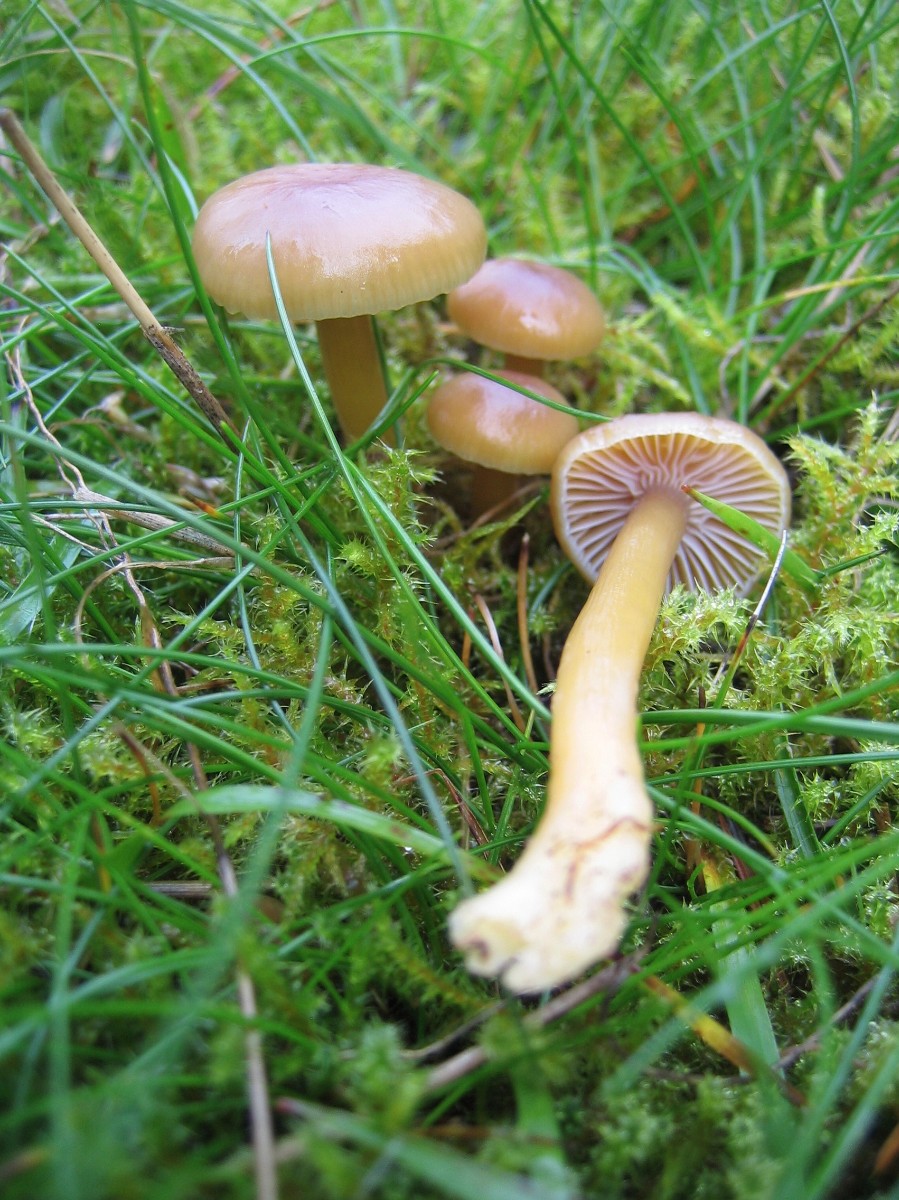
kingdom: Fungi
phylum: Basidiomycota
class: Agaricomycetes
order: Agaricales
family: Hygrophoraceae
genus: Gliophorus
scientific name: Gliophorus laetus
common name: brusk-vokshat
